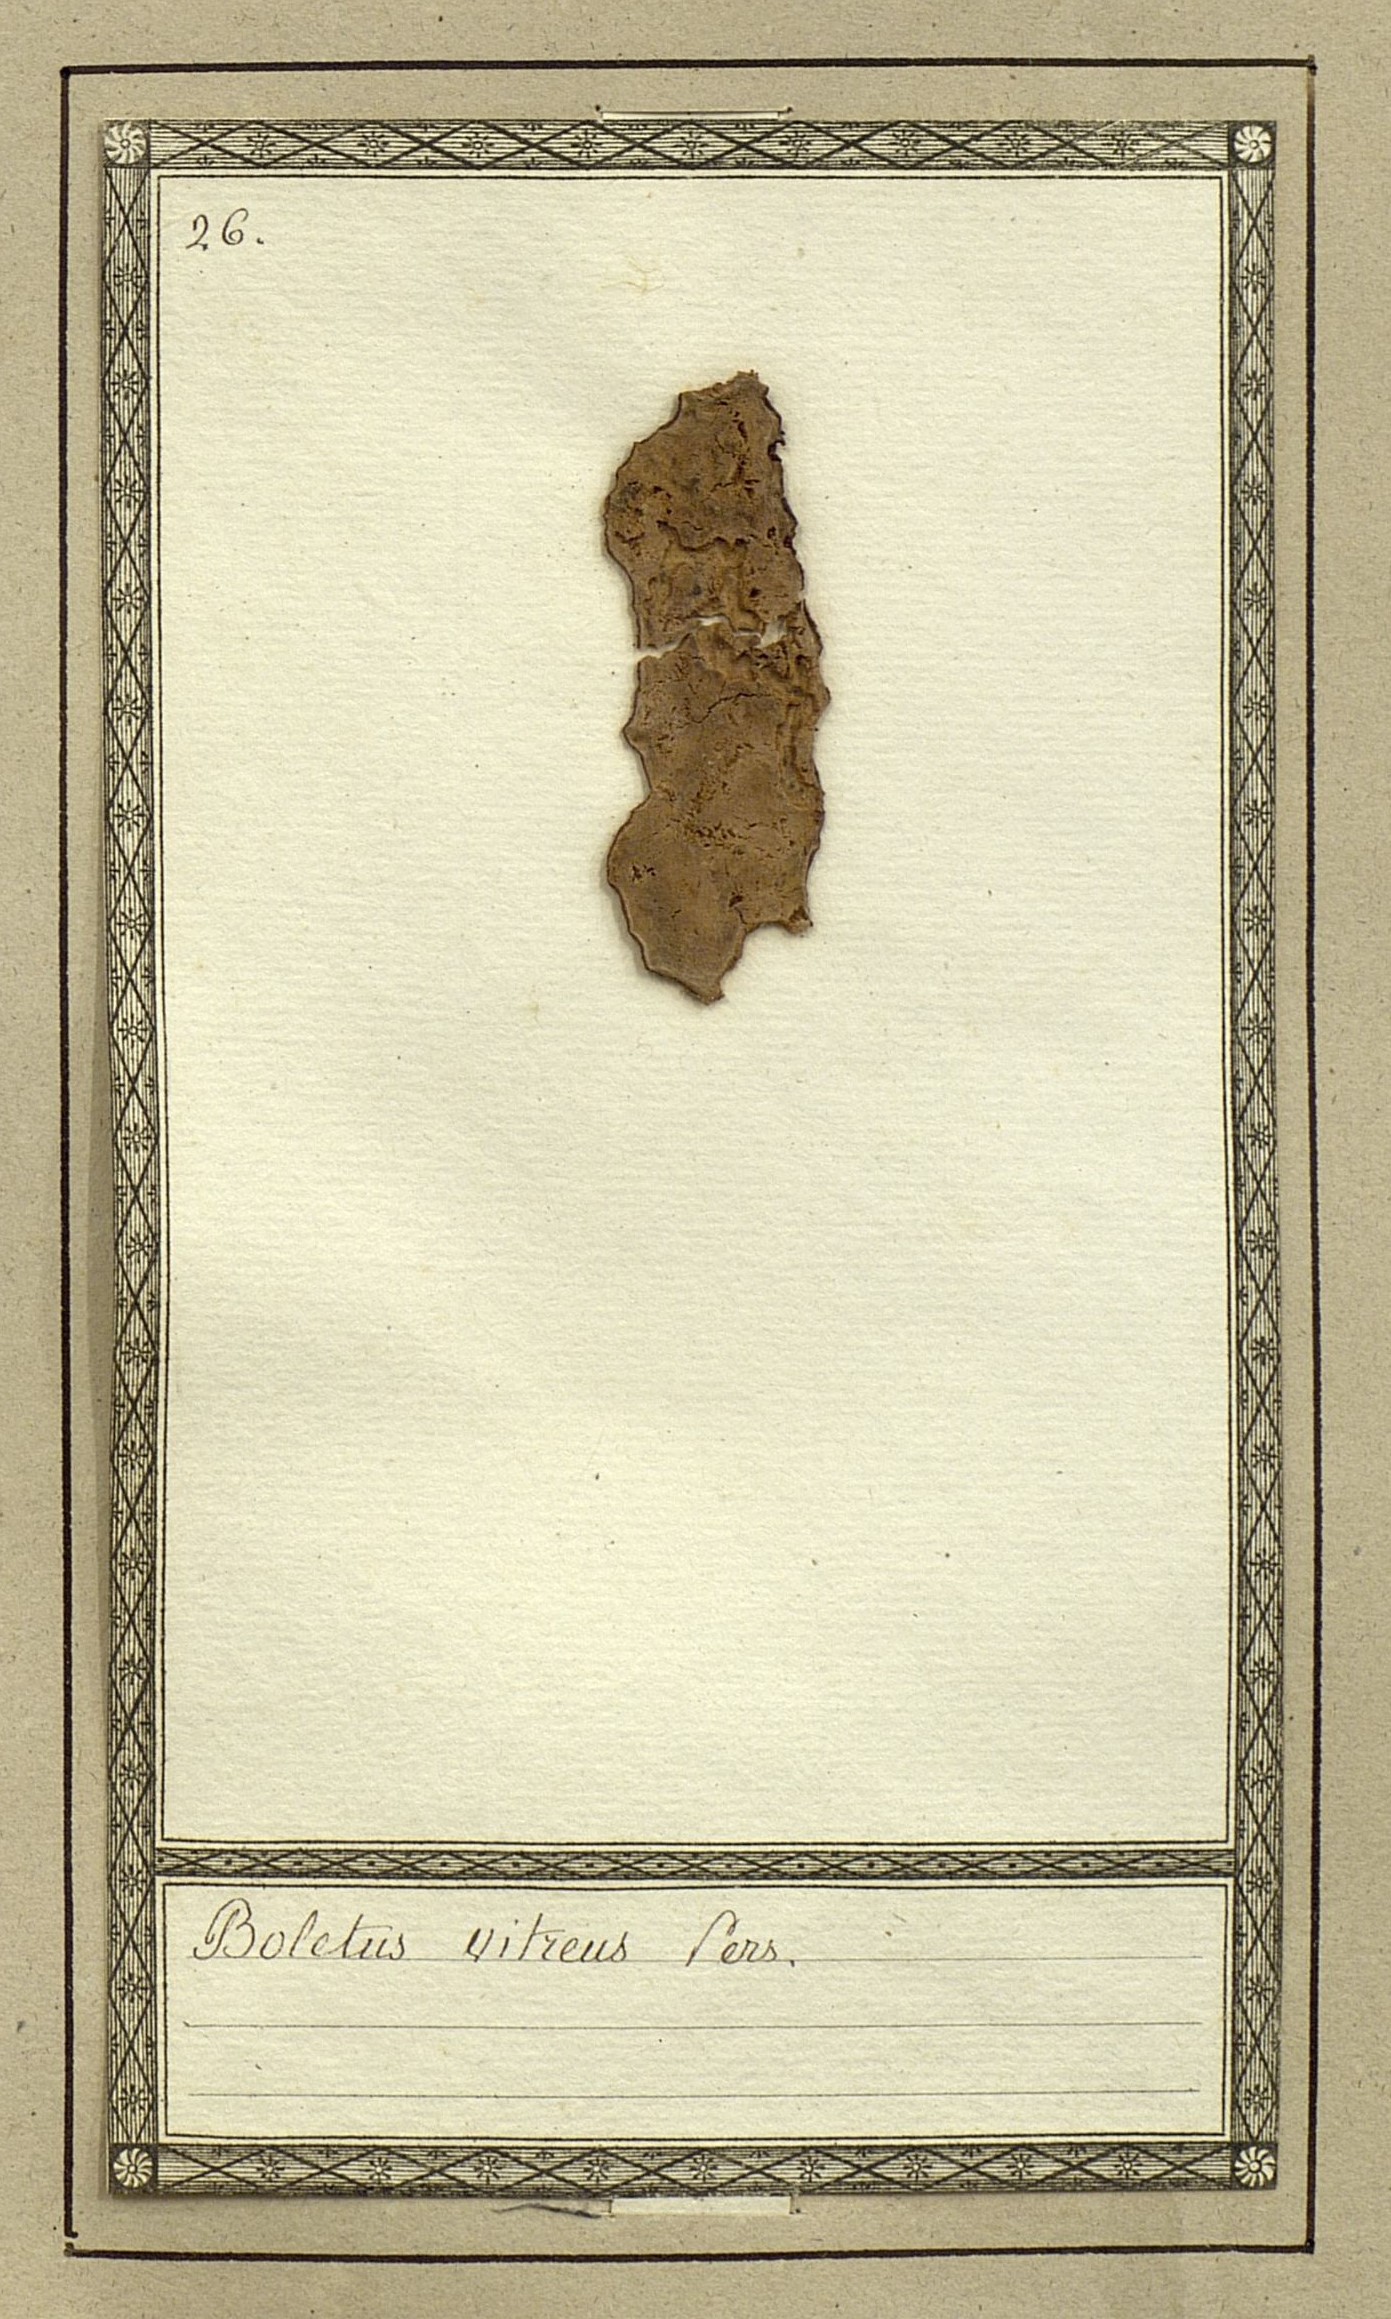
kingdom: Fungi
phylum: Basidiomycota
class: Agaricomycetes
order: Polyporales
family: Meruliaceae
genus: Physisporinus
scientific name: Physisporinus vitreus
